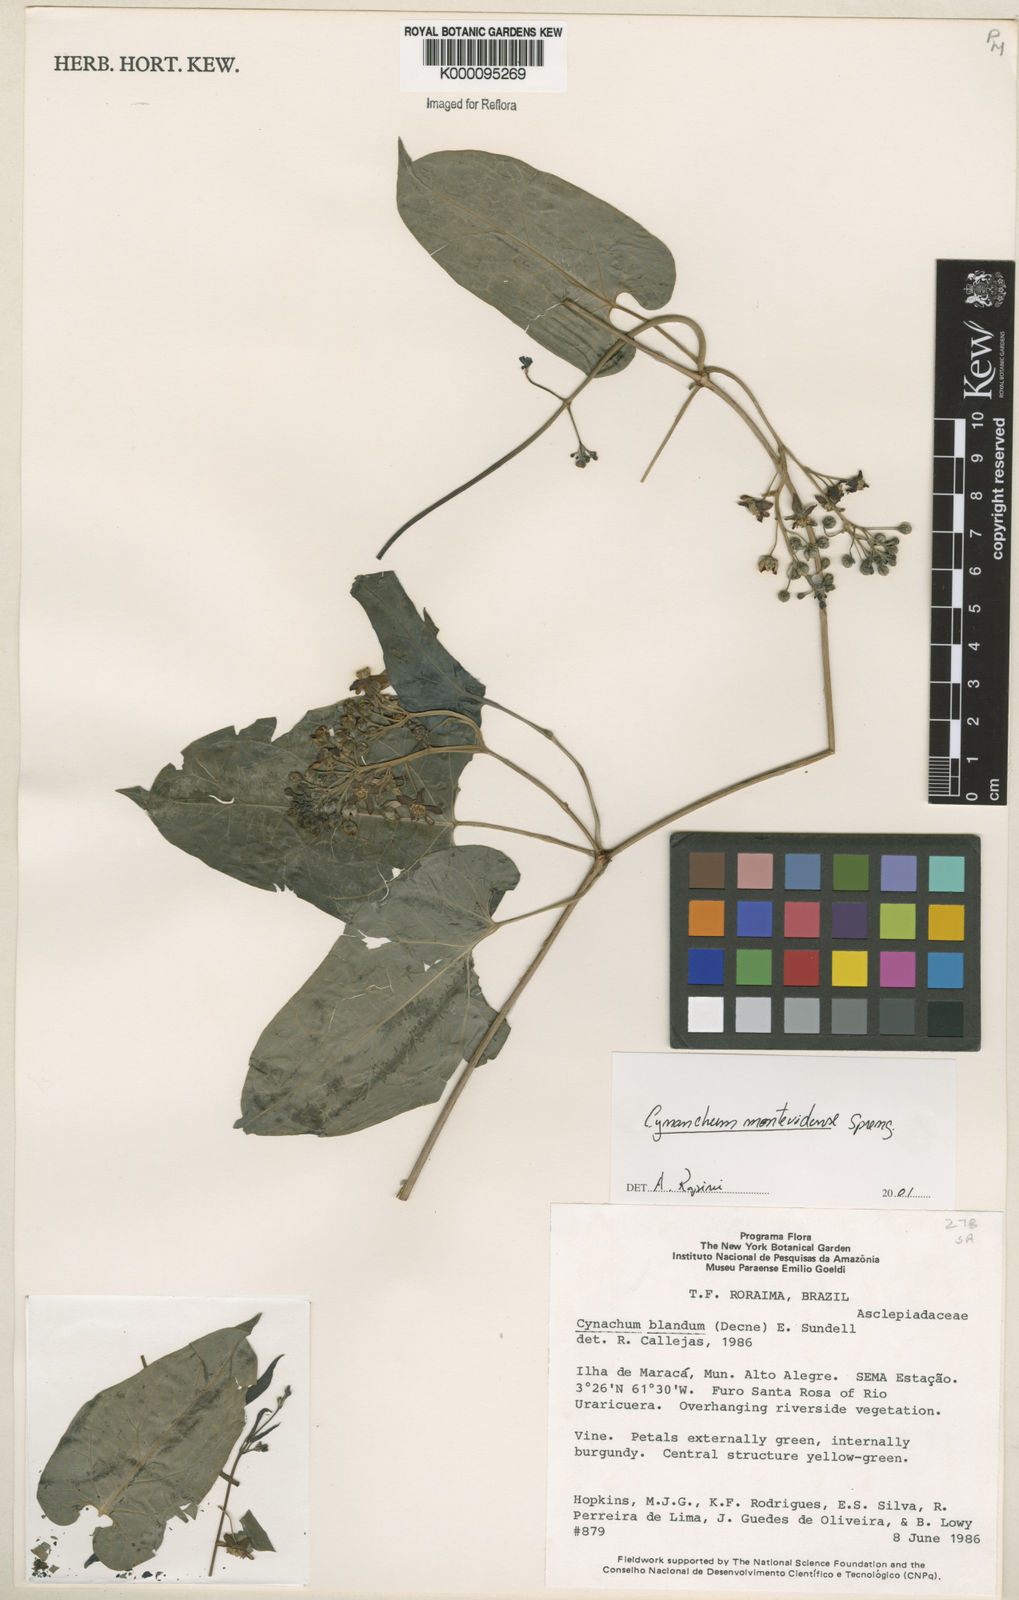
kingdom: Plantae
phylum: Tracheophyta
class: Magnoliopsida
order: Gentianales
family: Apocynaceae
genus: Cynanchum
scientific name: Cynanchum montevidense
